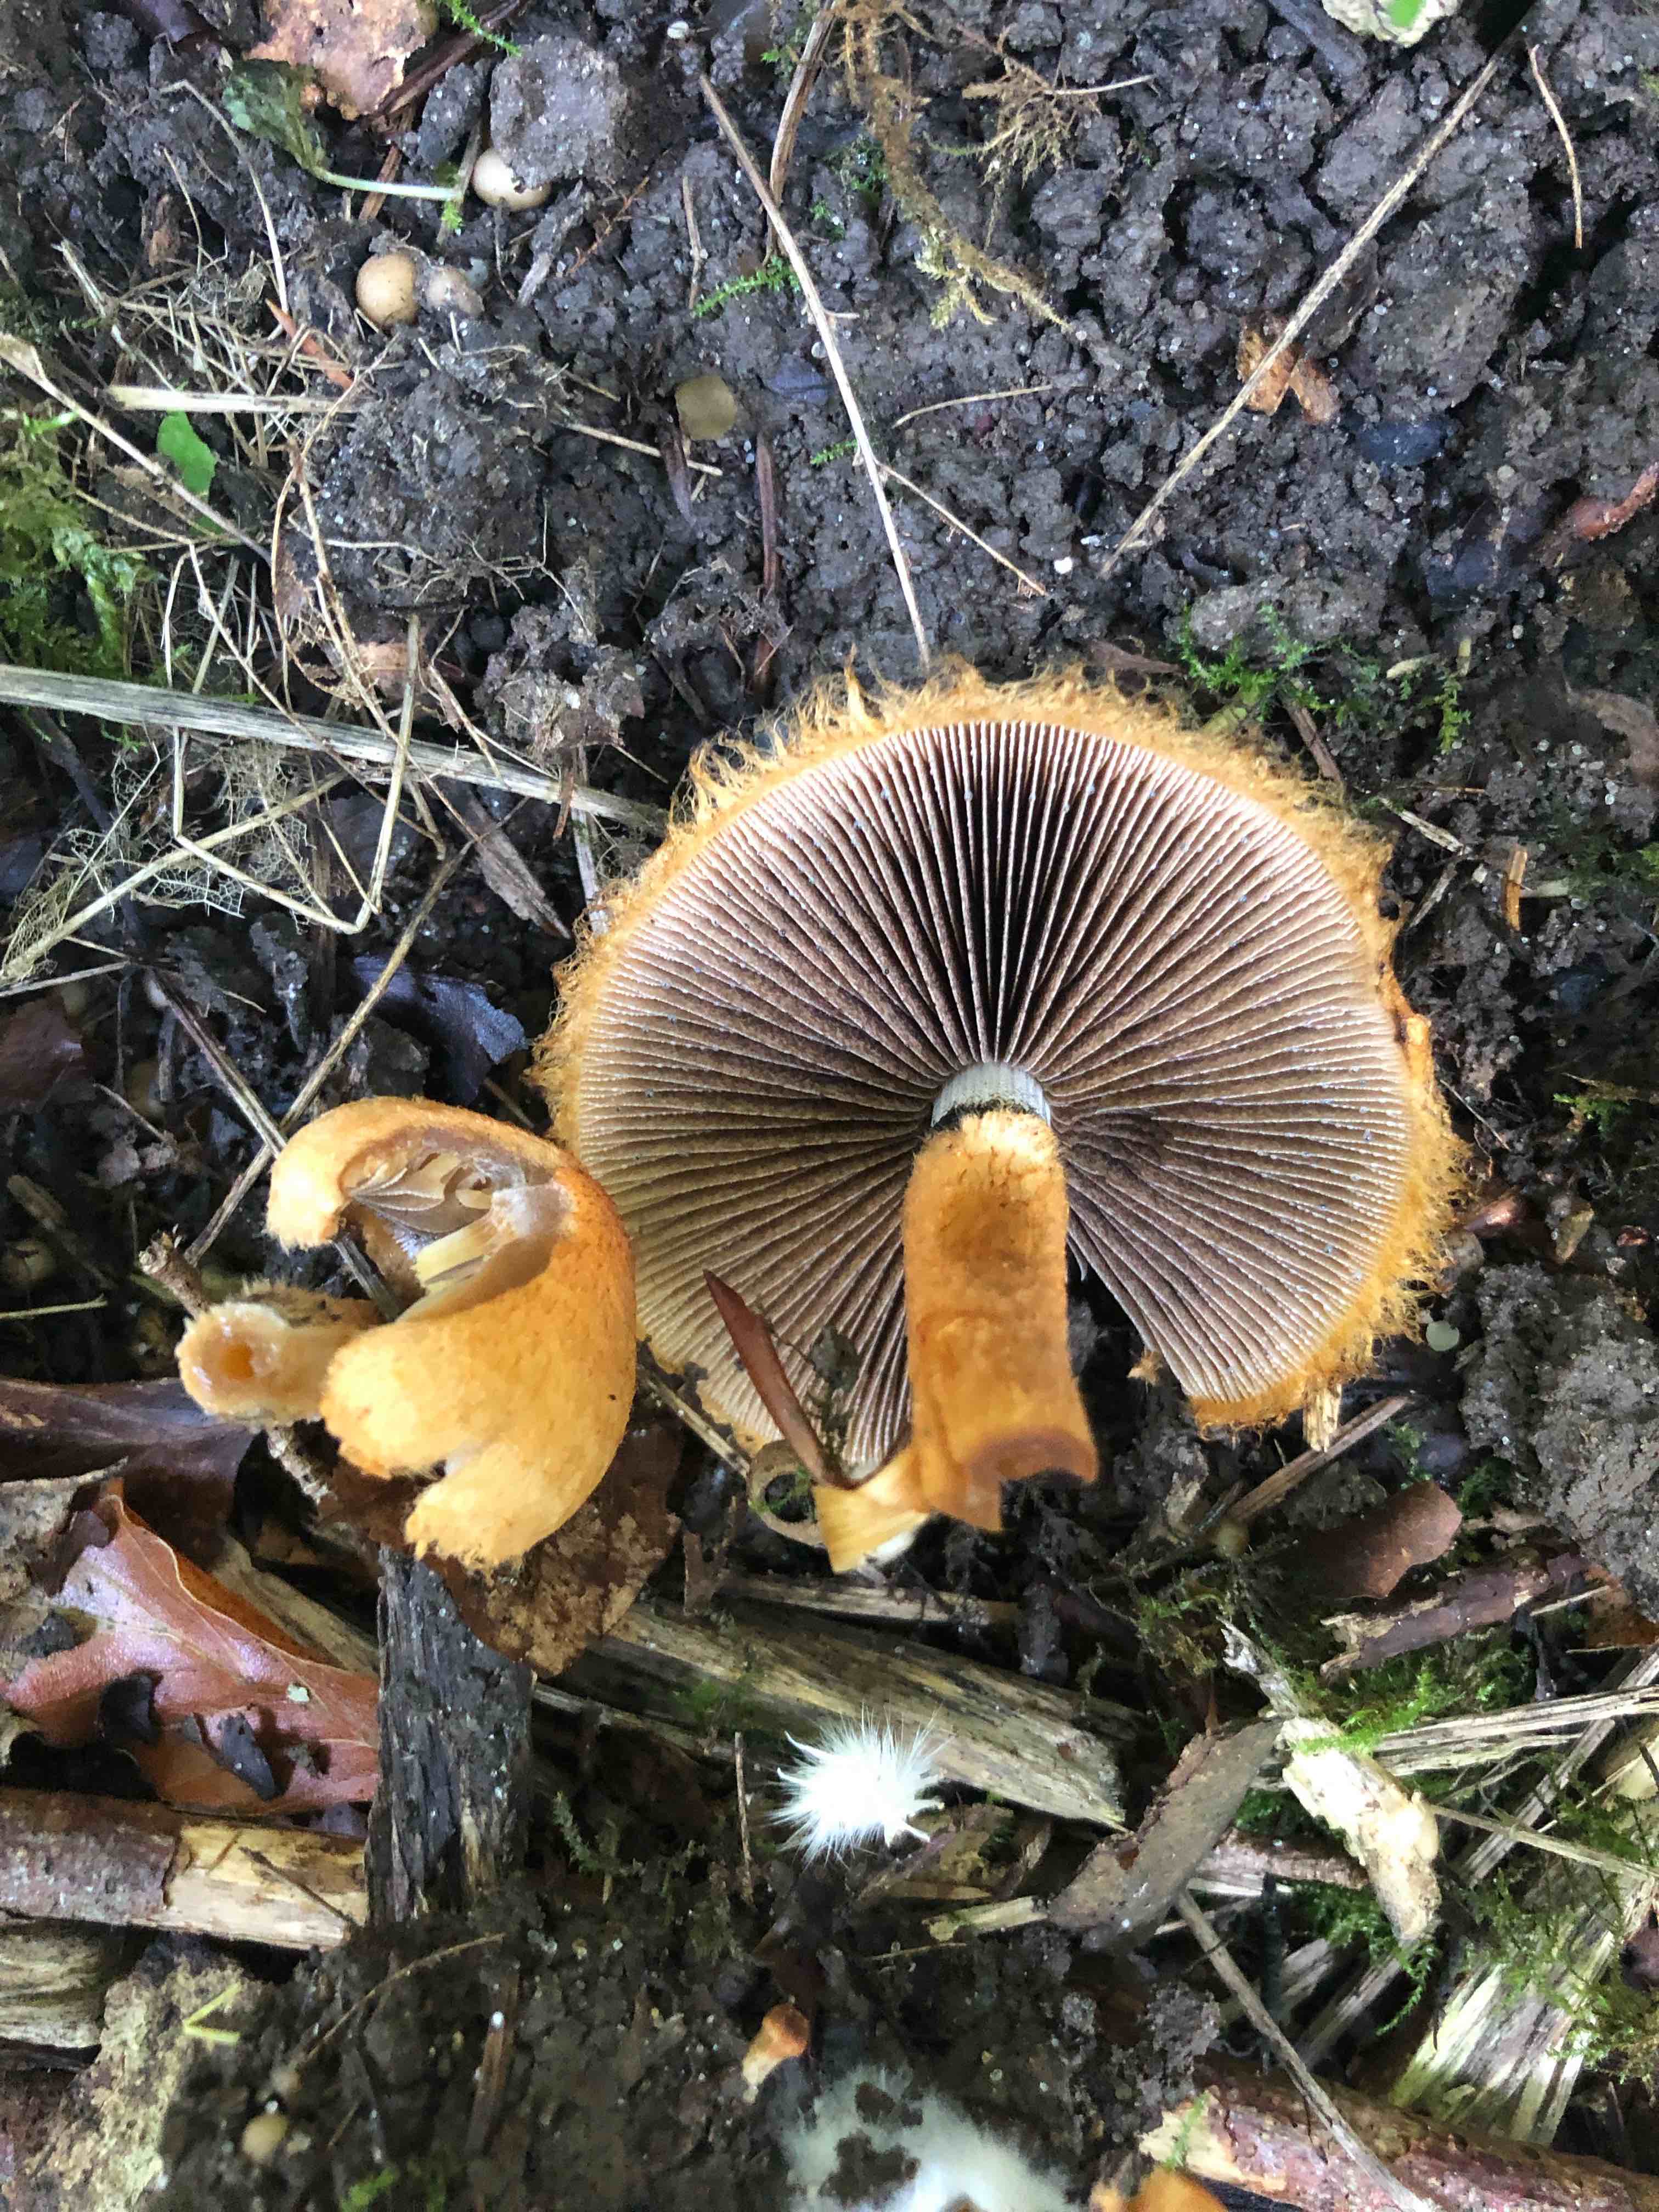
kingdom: Fungi
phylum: Basidiomycota
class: Agaricomycetes
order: Agaricales
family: Psathyrellaceae
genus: Lacrymaria
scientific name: Lacrymaria pyrotricha
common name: ildhåret mørkhat
